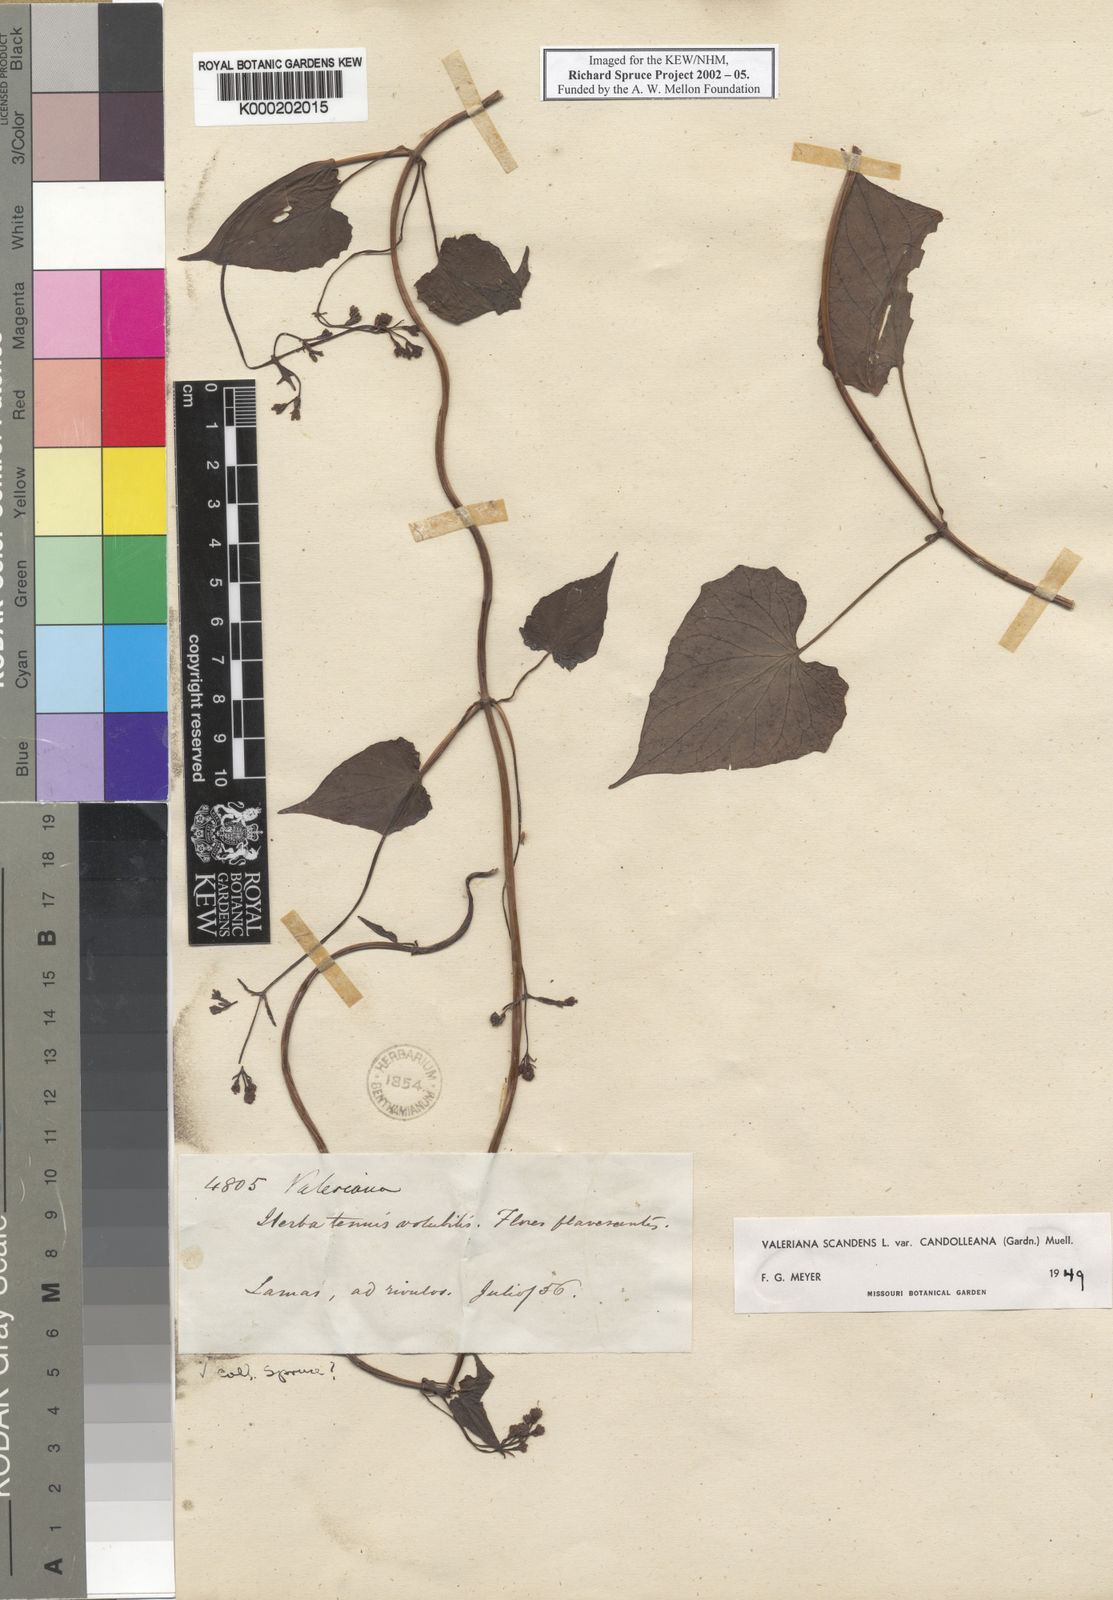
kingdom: Plantae
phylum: Tracheophyta
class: Magnoliopsida
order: Dipsacales
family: Caprifoliaceae
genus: Valeriana
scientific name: Valeriana
